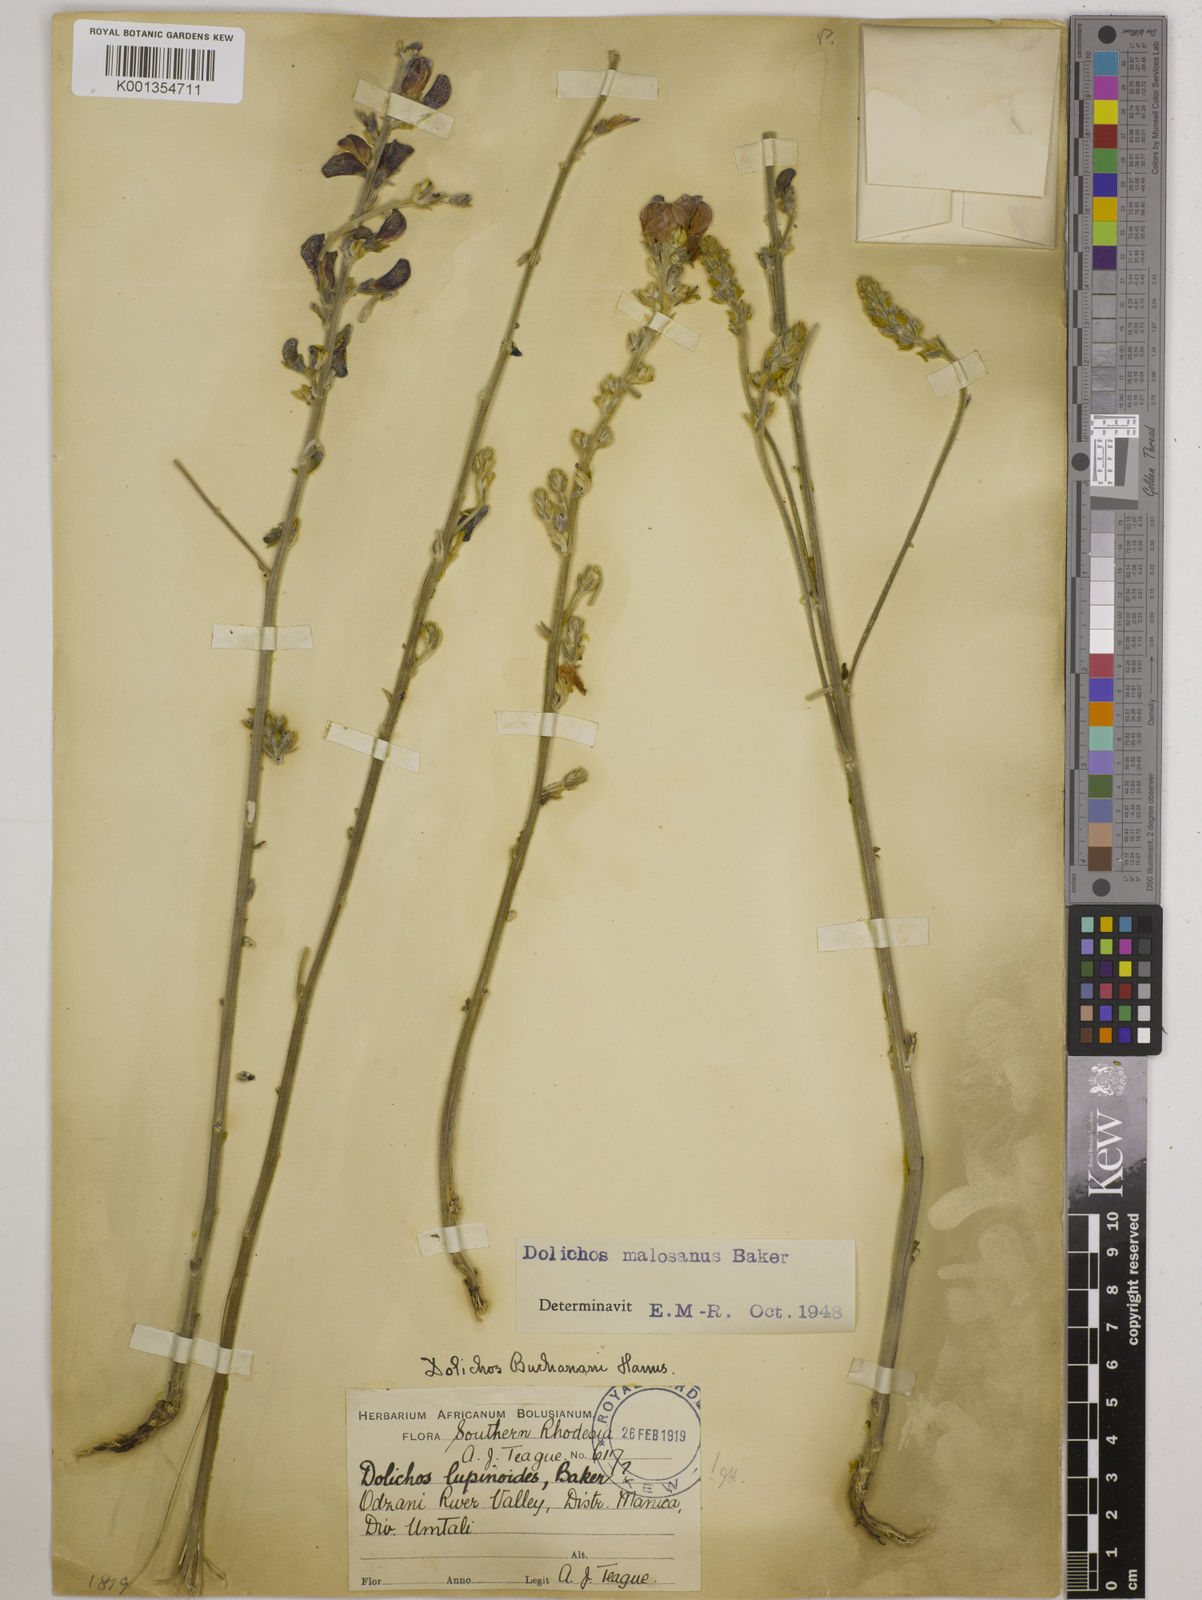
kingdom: Plantae
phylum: Tracheophyta
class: Magnoliopsida
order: Fabales
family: Fabaceae
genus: Dolichos
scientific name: Dolichos kilimandscharicus
